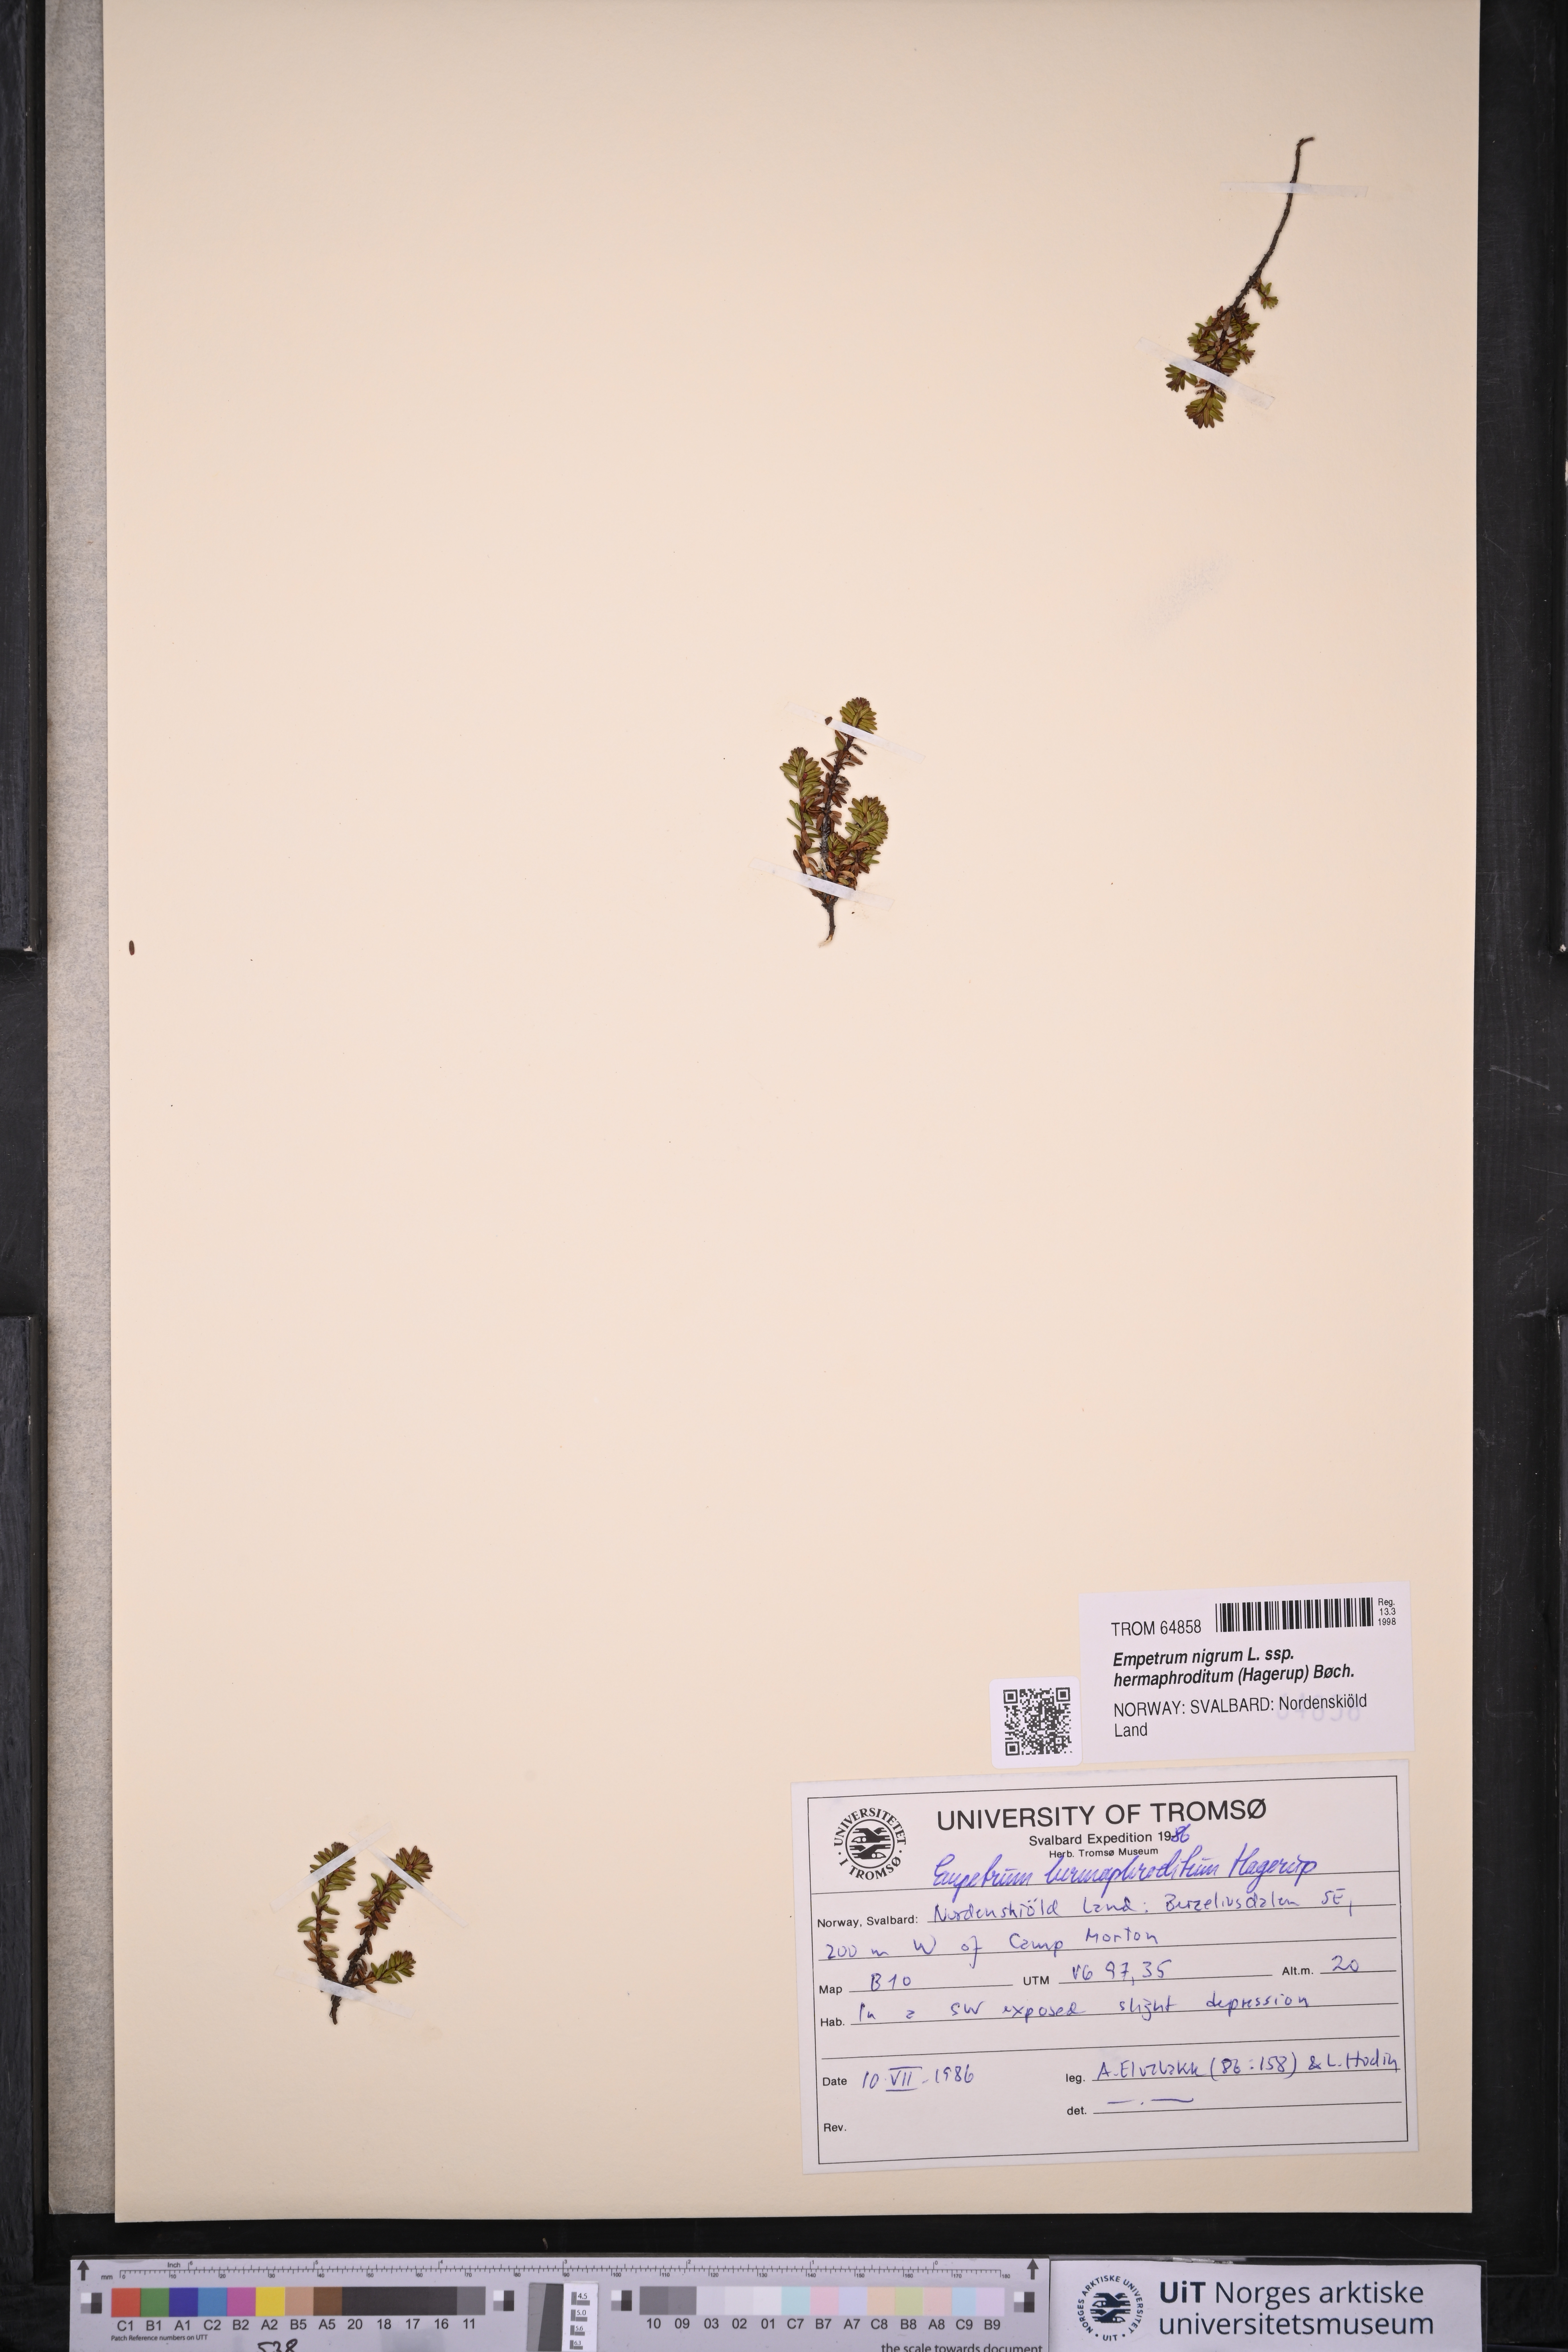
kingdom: Plantae
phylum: Tracheophyta
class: Magnoliopsida
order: Ericales
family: Ericaceae
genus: Empetrum
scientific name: Empetrum hermaphroditum
